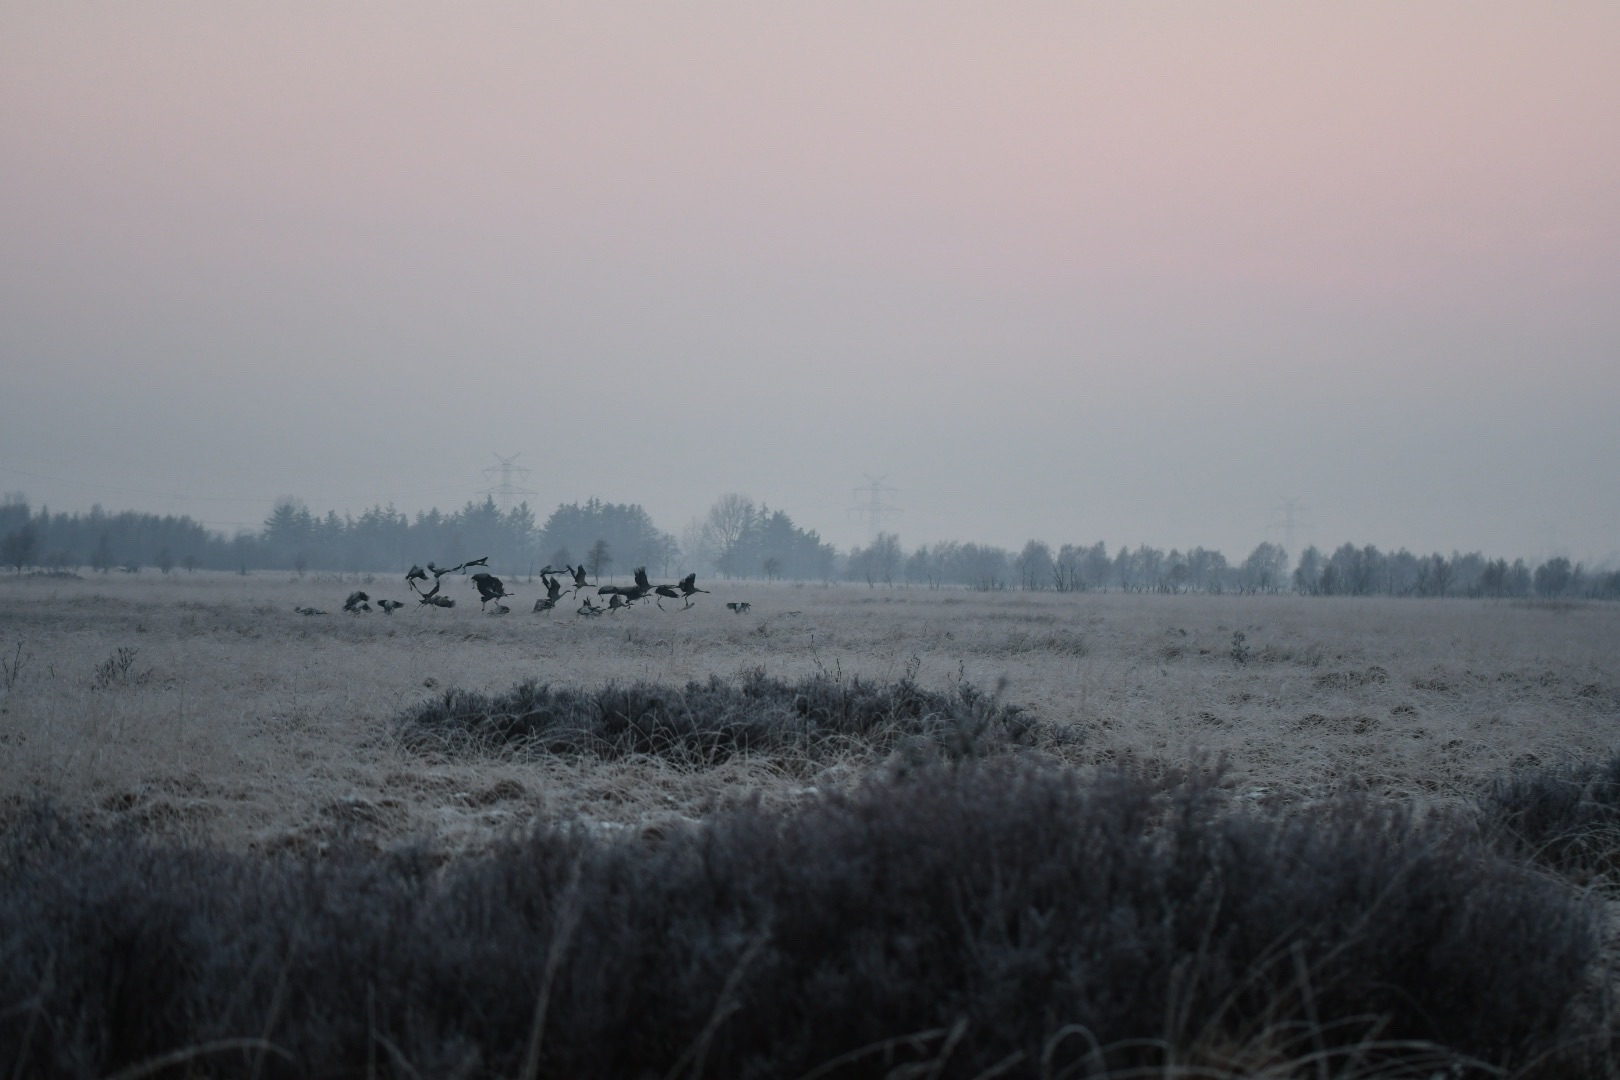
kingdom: Animalia
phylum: Chordata
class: Aves
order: Gruiformes
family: Gruidae
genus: Grus
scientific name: Grus grus
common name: Trane
